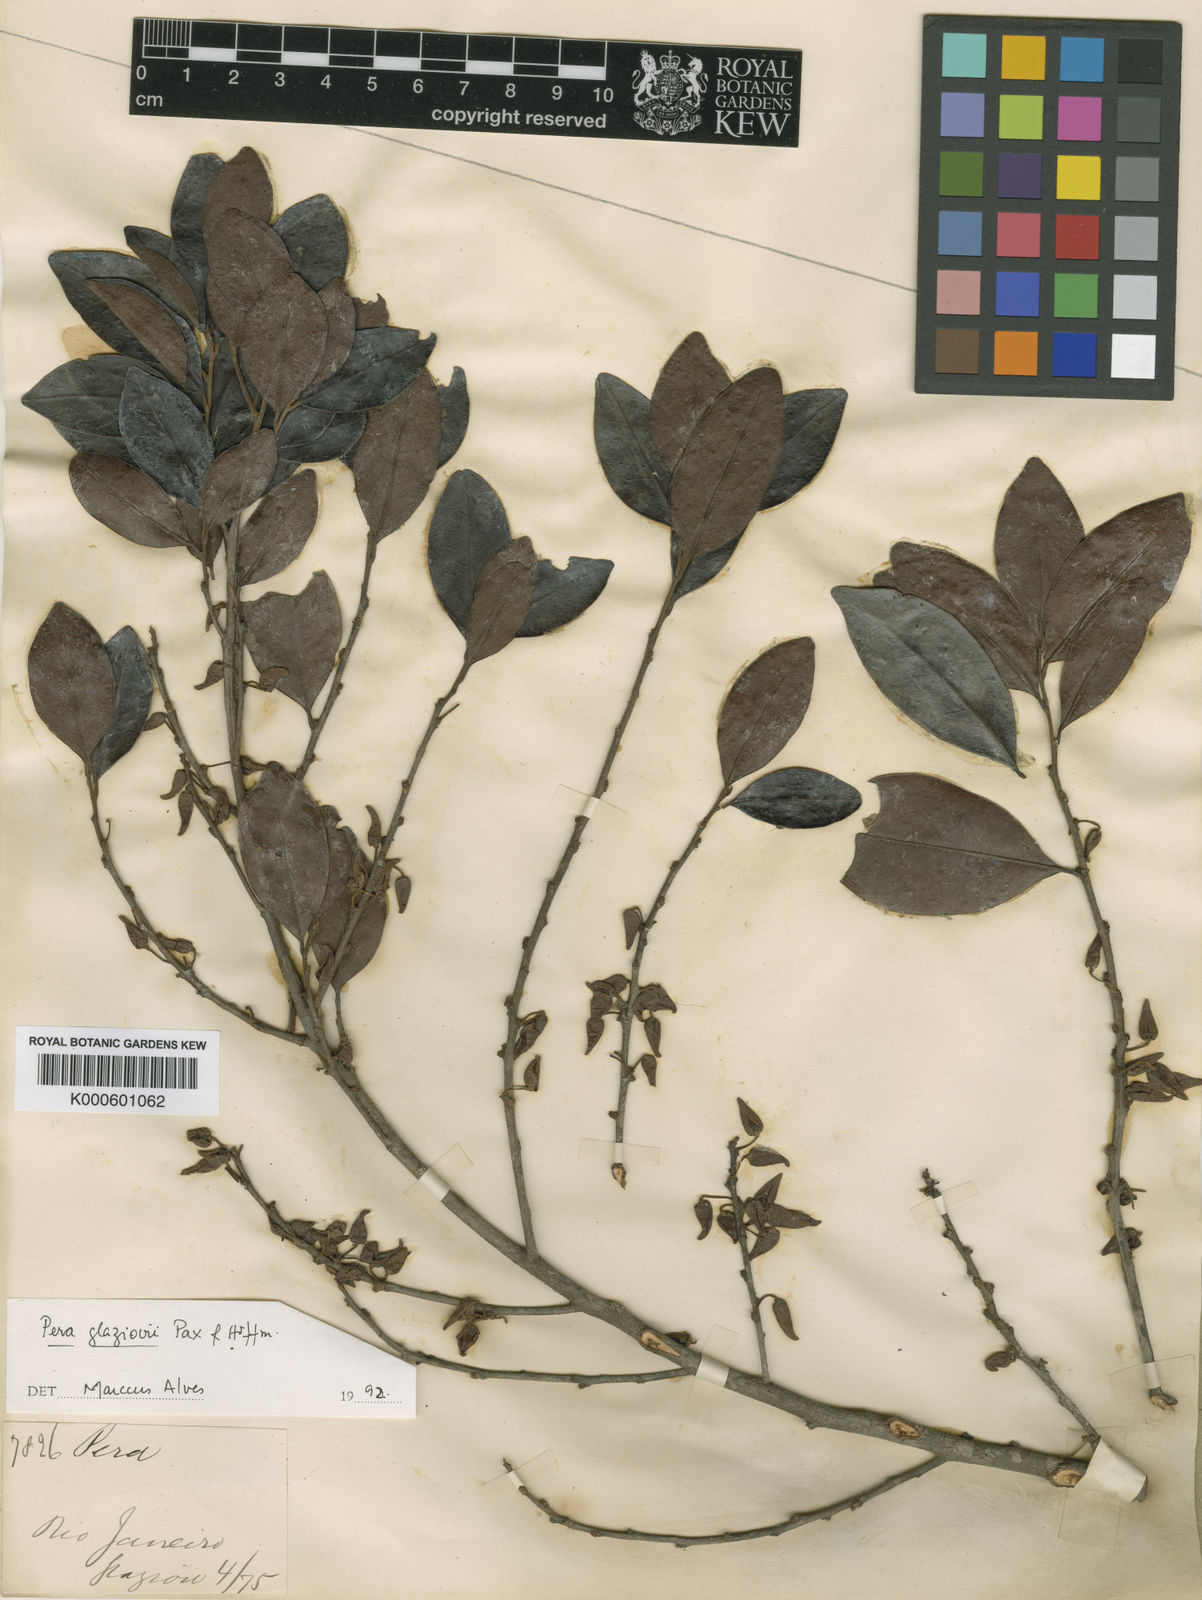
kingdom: Plantae
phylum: Tracheophyta
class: Magnoliopsida
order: Malpighiales
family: Peraceae
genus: Pera
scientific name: Pera
